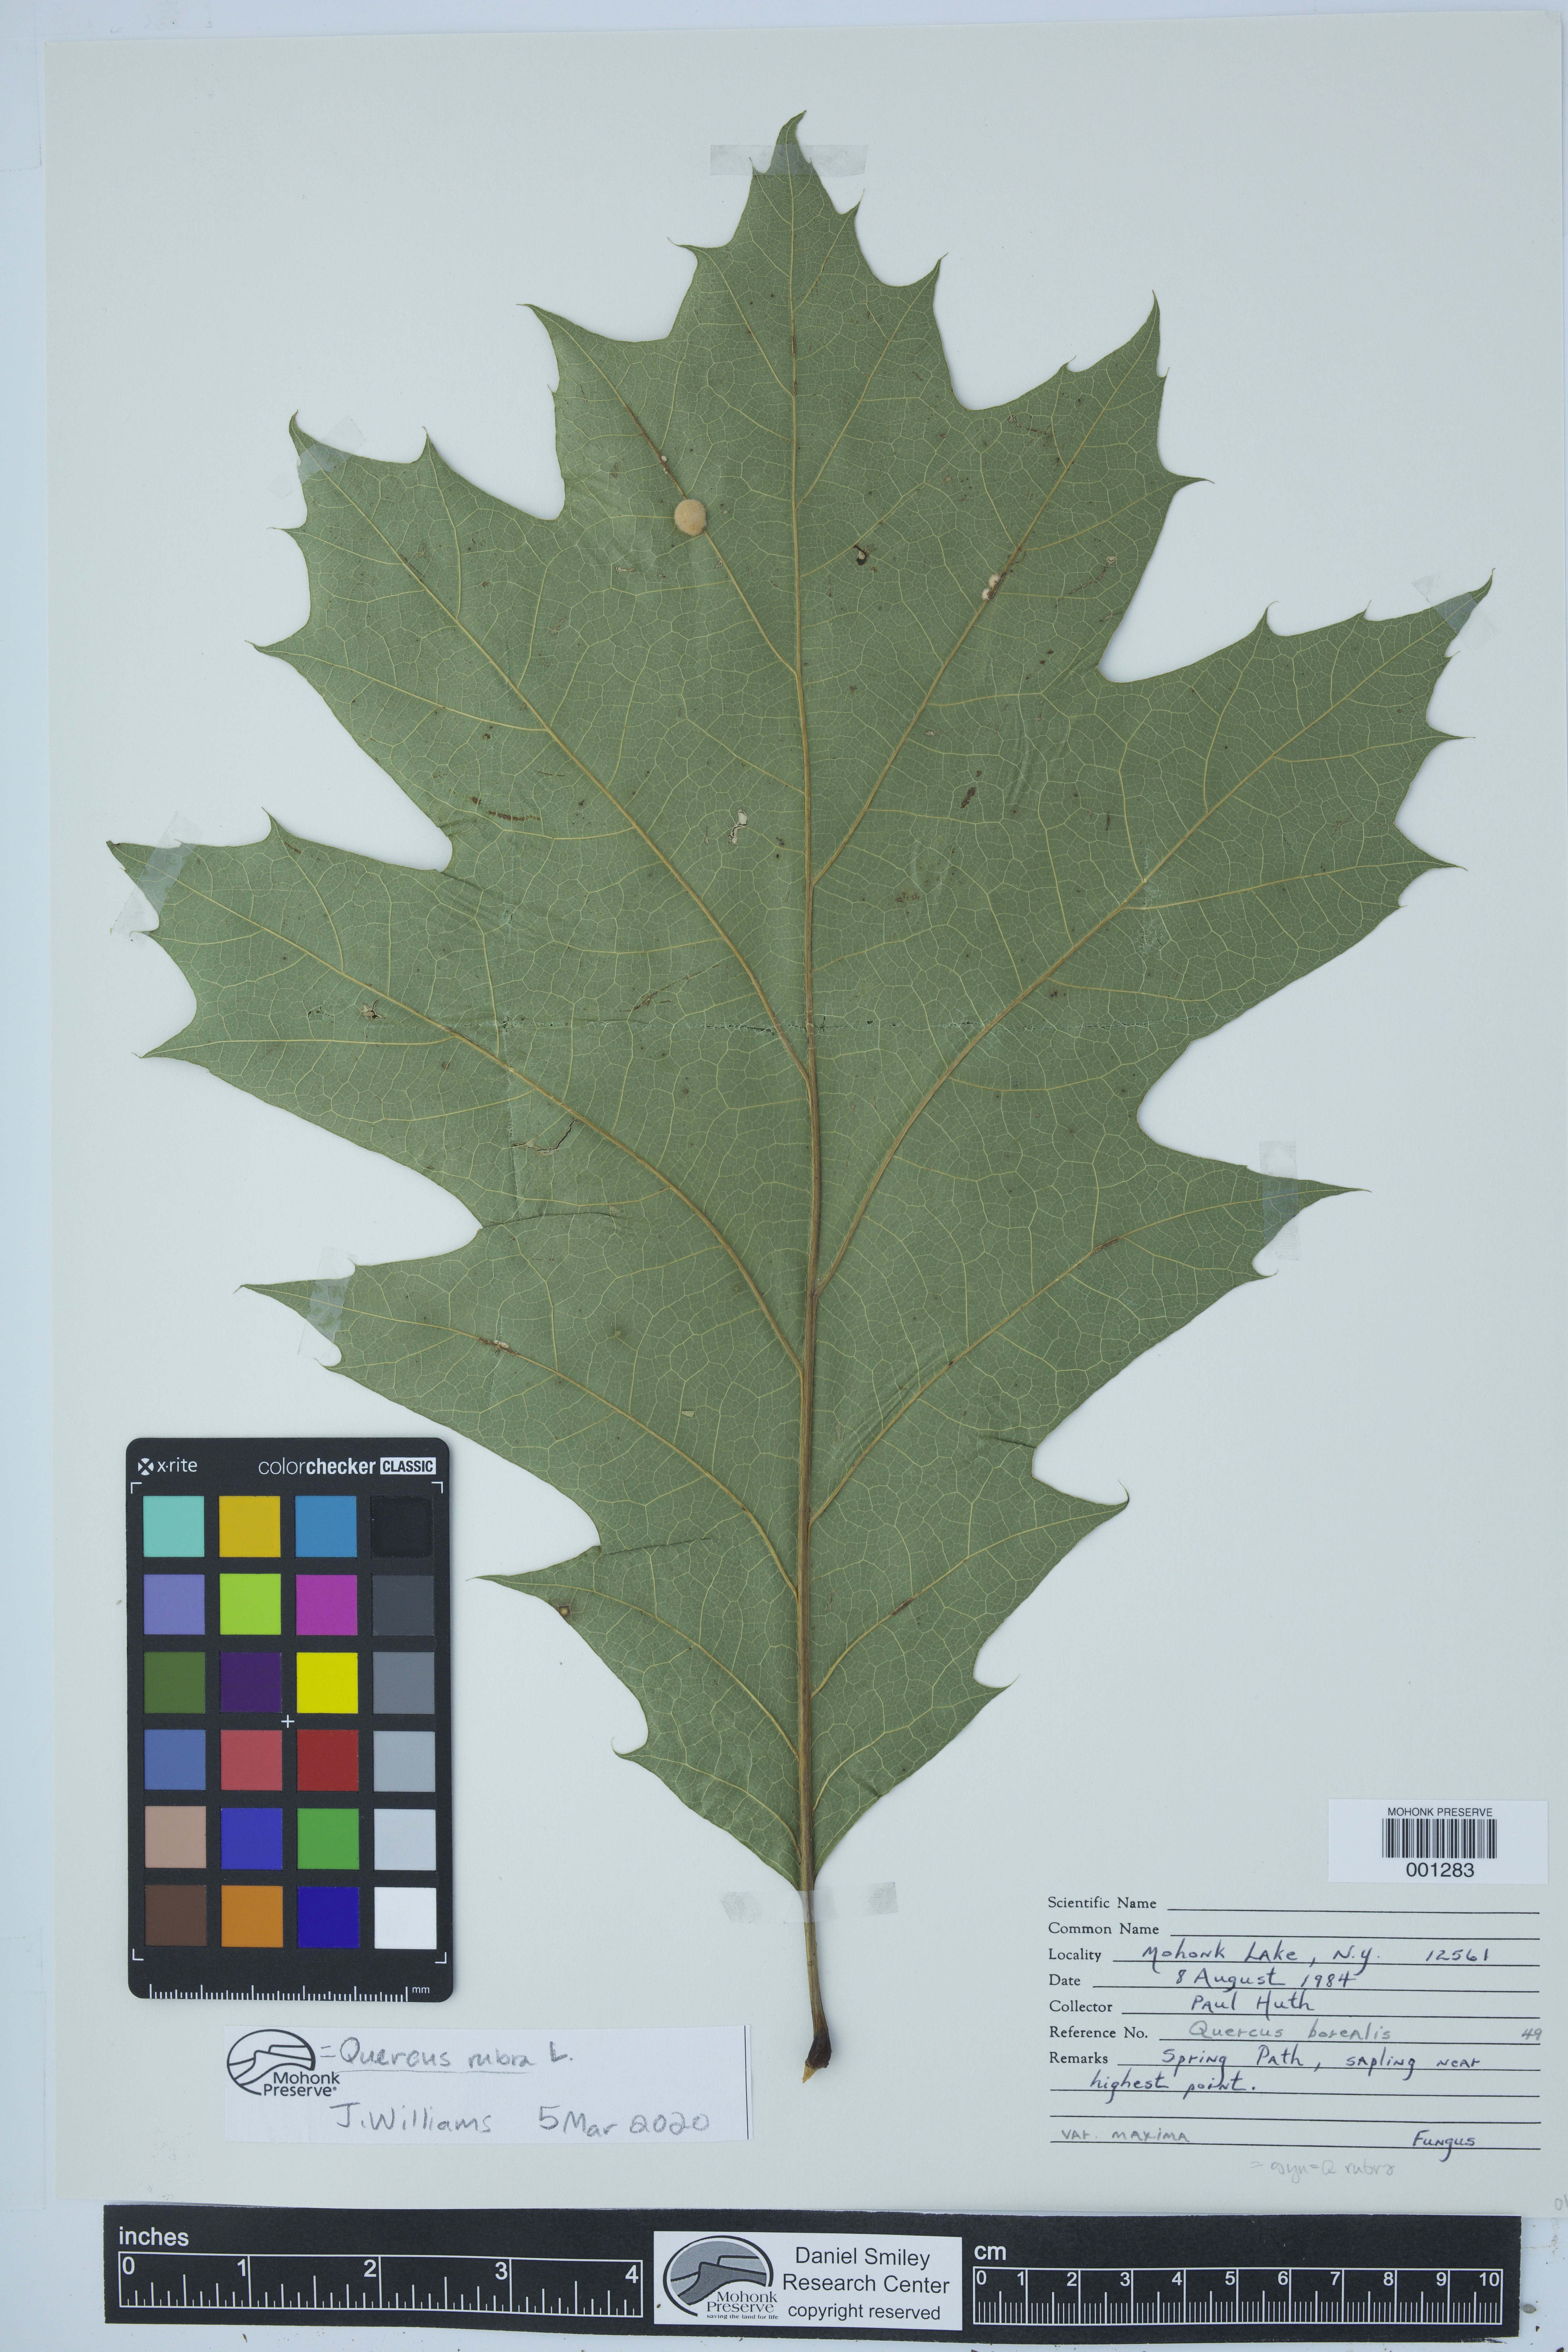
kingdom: Plantae
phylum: Tracheophyta
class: Magnoliopsida
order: Fagales
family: Fagaceae
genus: Quercus
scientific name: Quercus rubra
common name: Red oak
